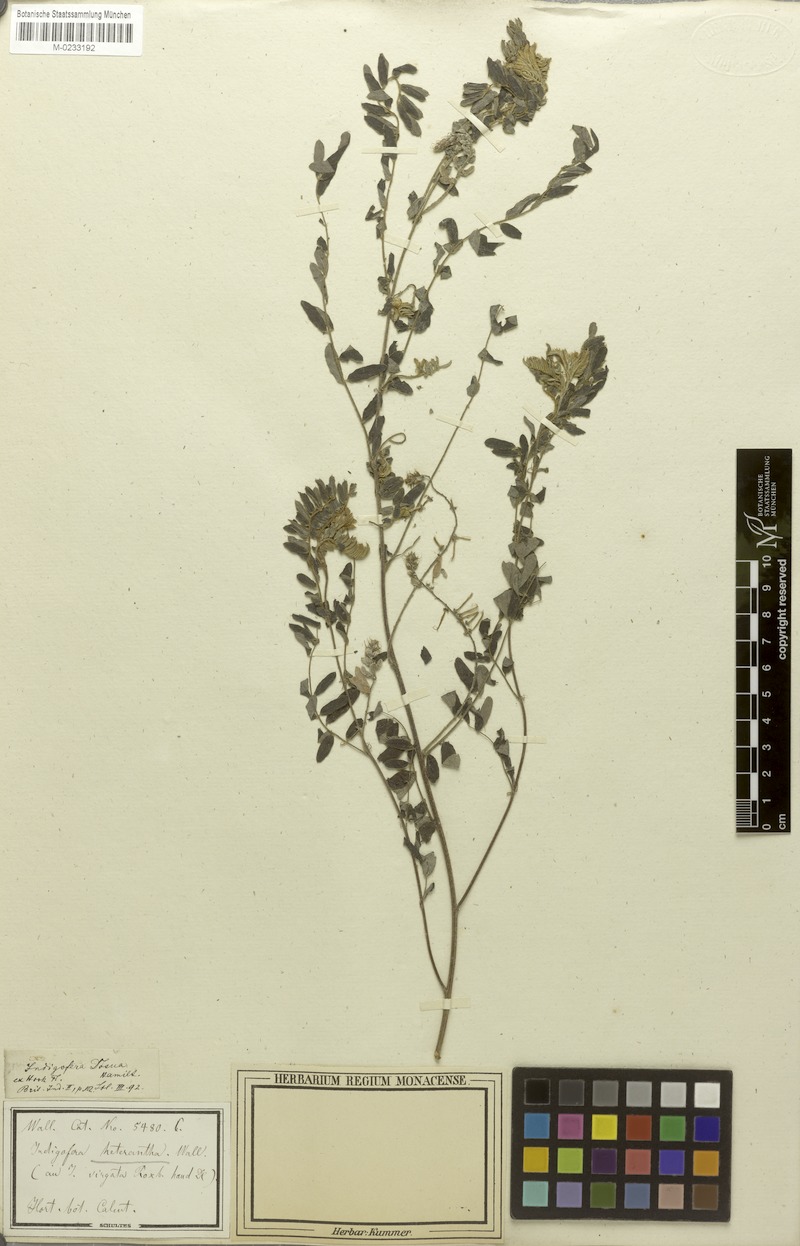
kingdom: Plantae
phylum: Tracheophyta
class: Magnoliopsida
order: Fabales
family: Fabaceae
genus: Indigofera
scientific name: Indigofera heterantha
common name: Himalayan indigo
